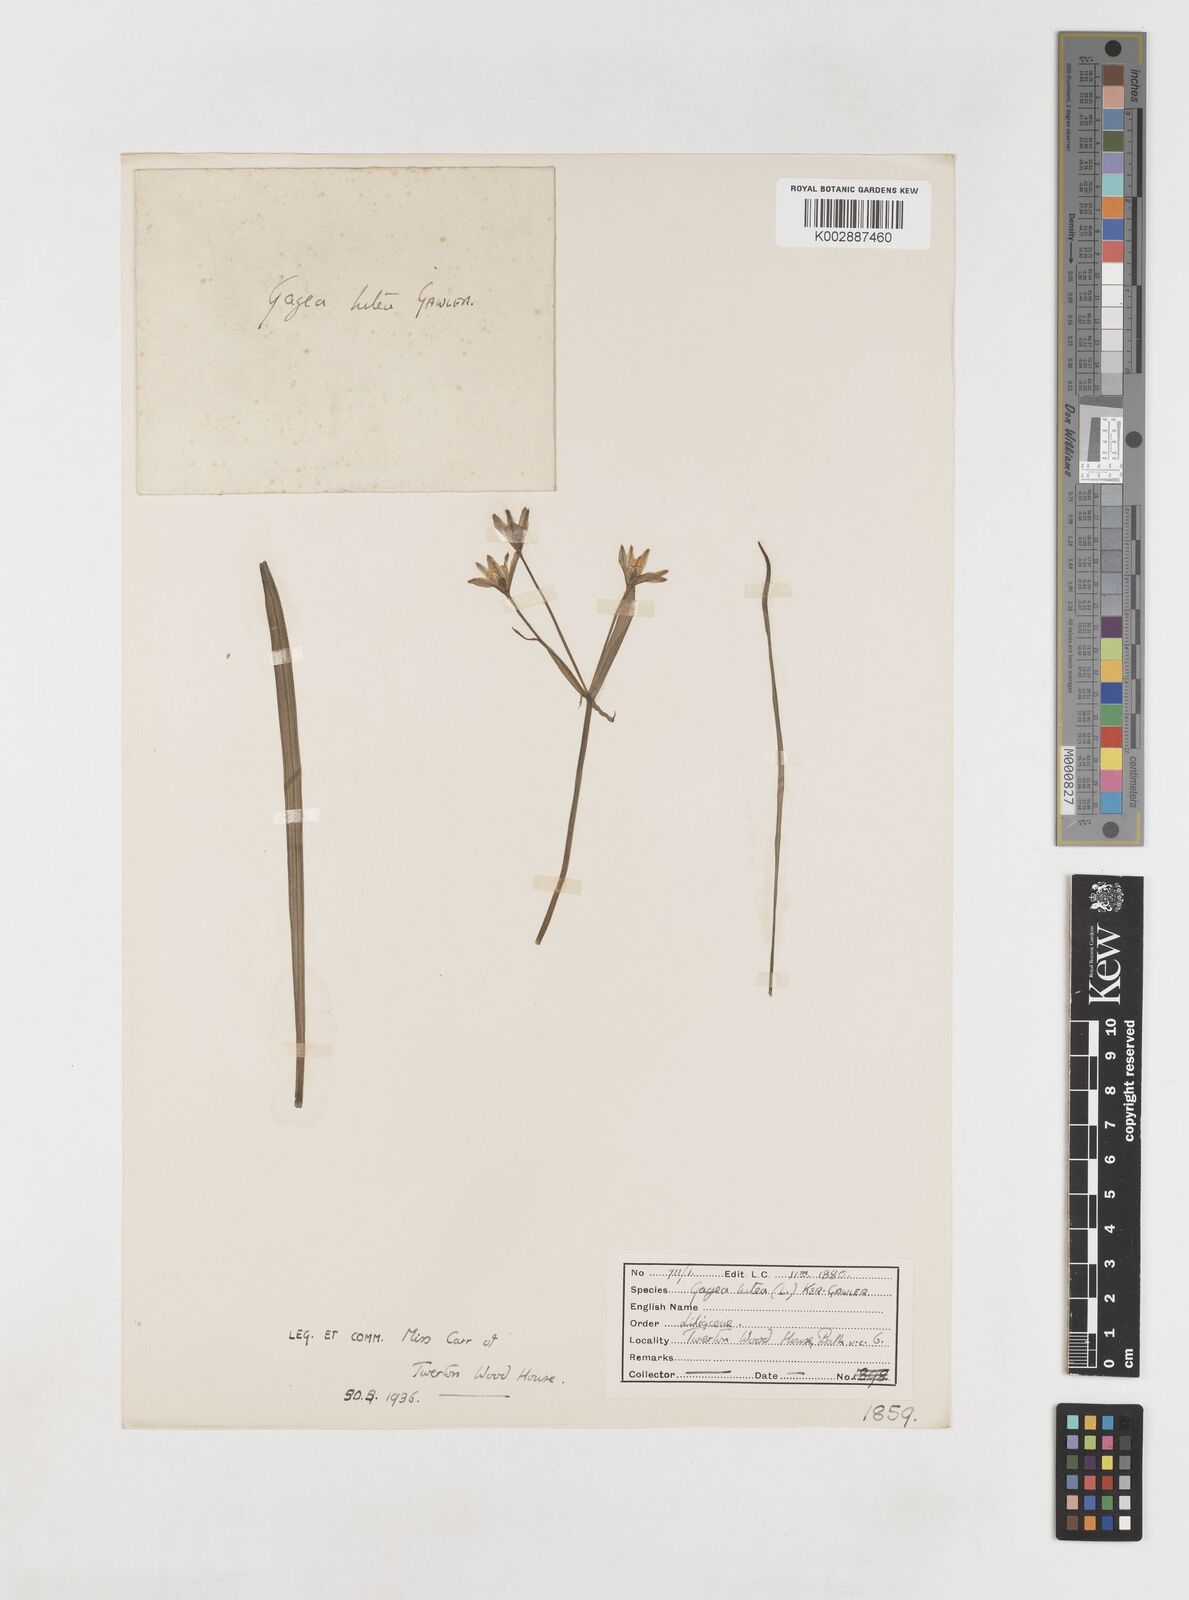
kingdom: Plantae
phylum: Tracheophyta
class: Liliopsida
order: Liliales
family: Liliaceae
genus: Gagea
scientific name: Gagea lutea
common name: Yellow star-of-bethlehem
